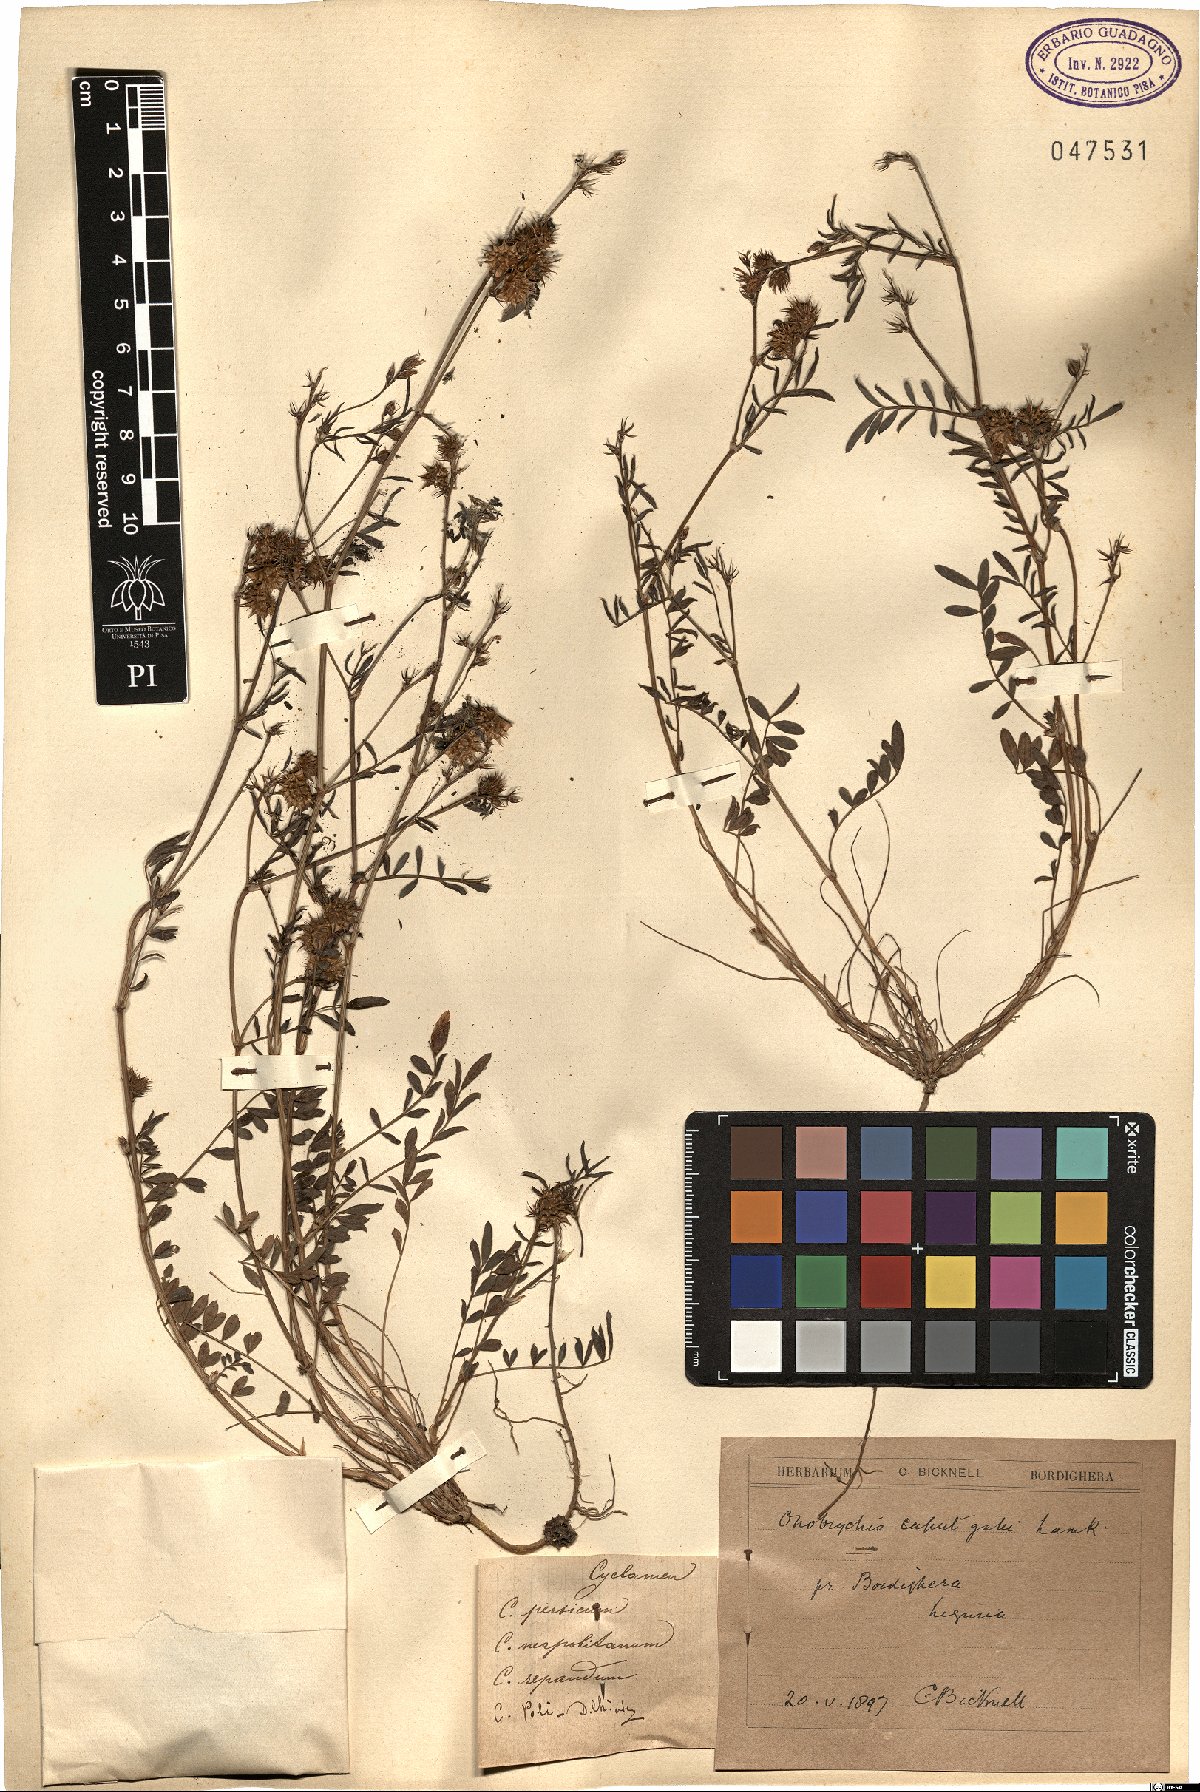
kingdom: Plantae
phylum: Tracheophyta
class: Magnoliopsida
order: Fabales
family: Fabaceae
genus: Onobrychis
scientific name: Onobrychis caput-galli
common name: Cockscomb sainfoin
